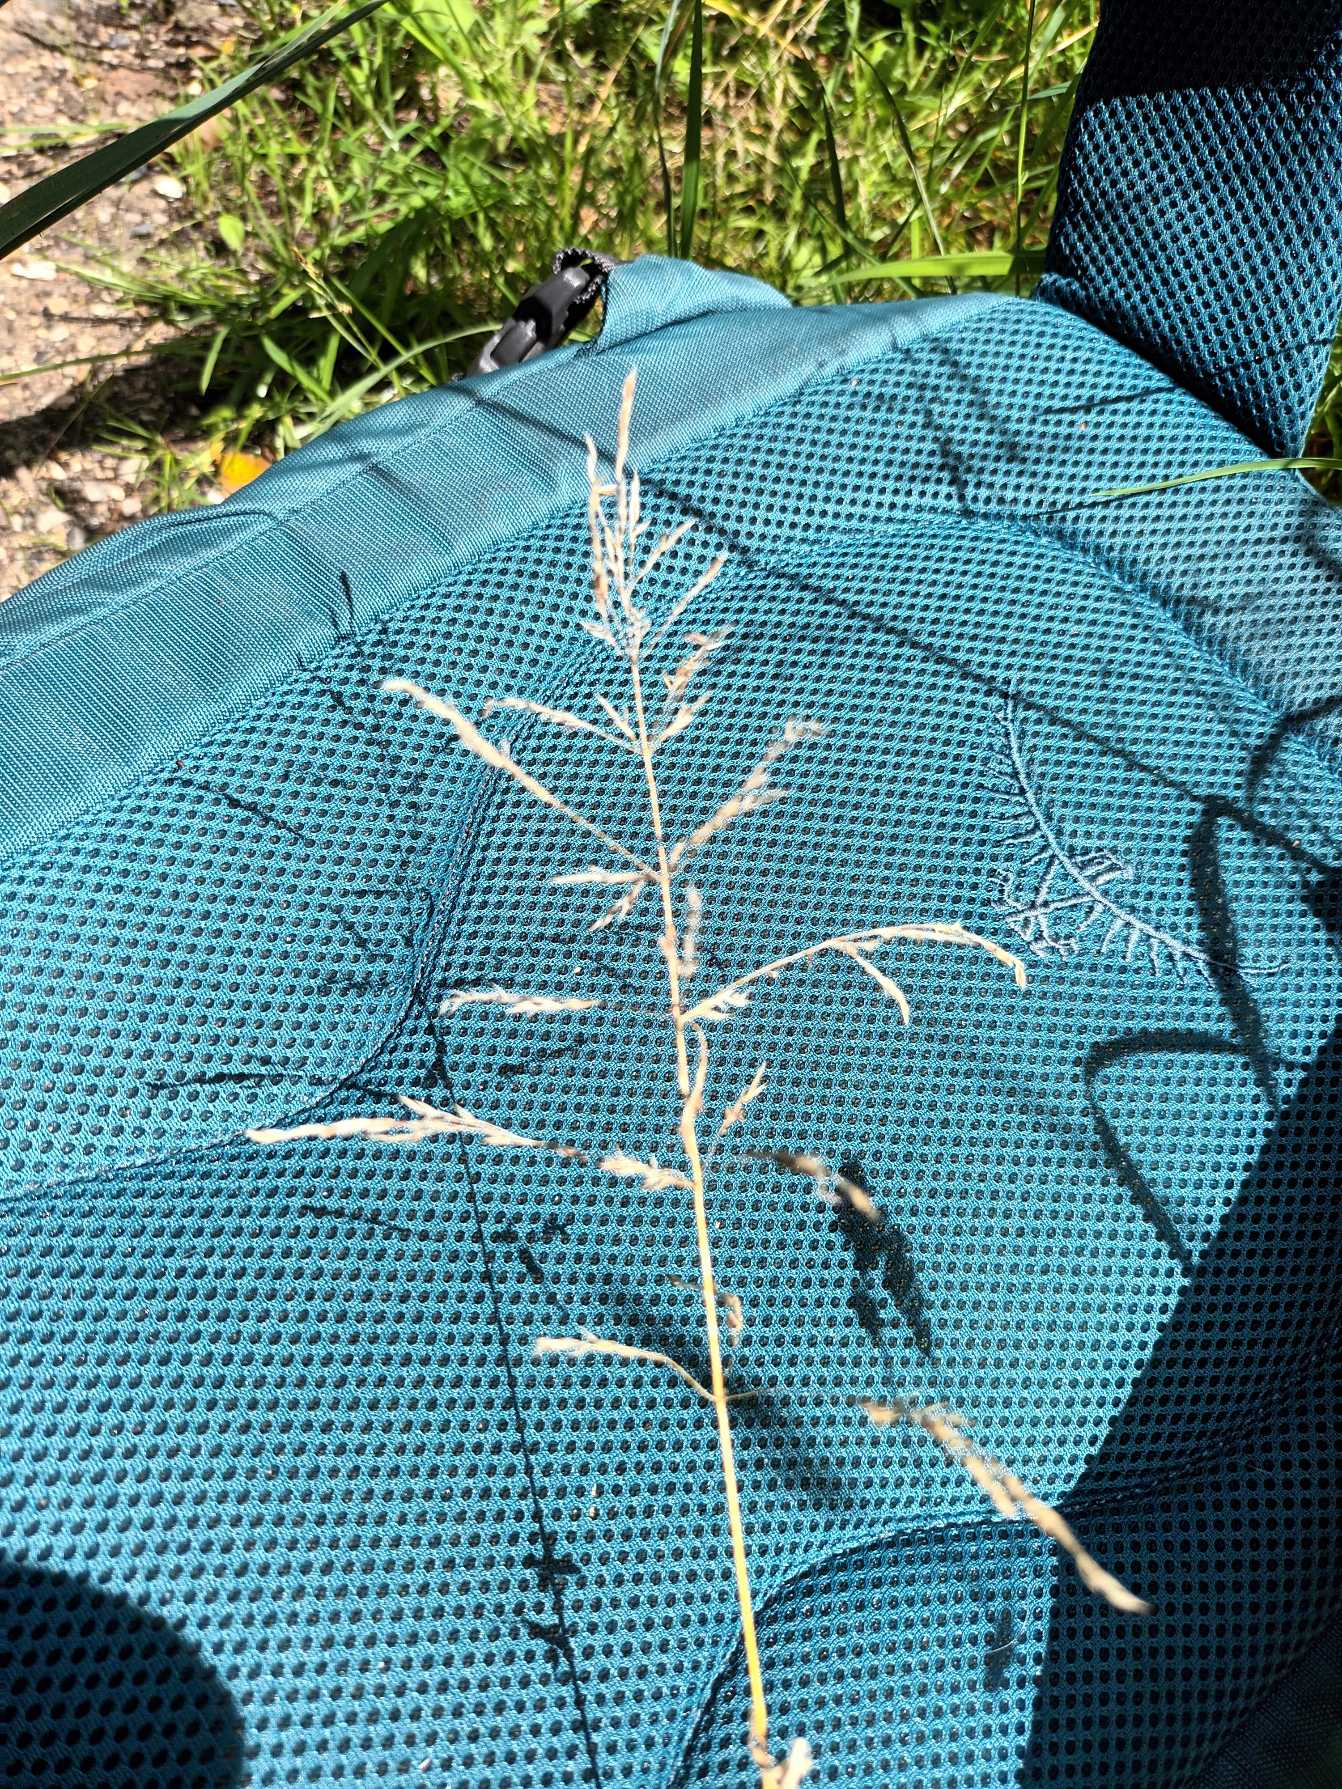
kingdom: Plantae
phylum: Tracheophyta
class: Liliopsida
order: Poales
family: Poaceae
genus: Poa
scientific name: Poa trivialis
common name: Almindelig rapgræs
